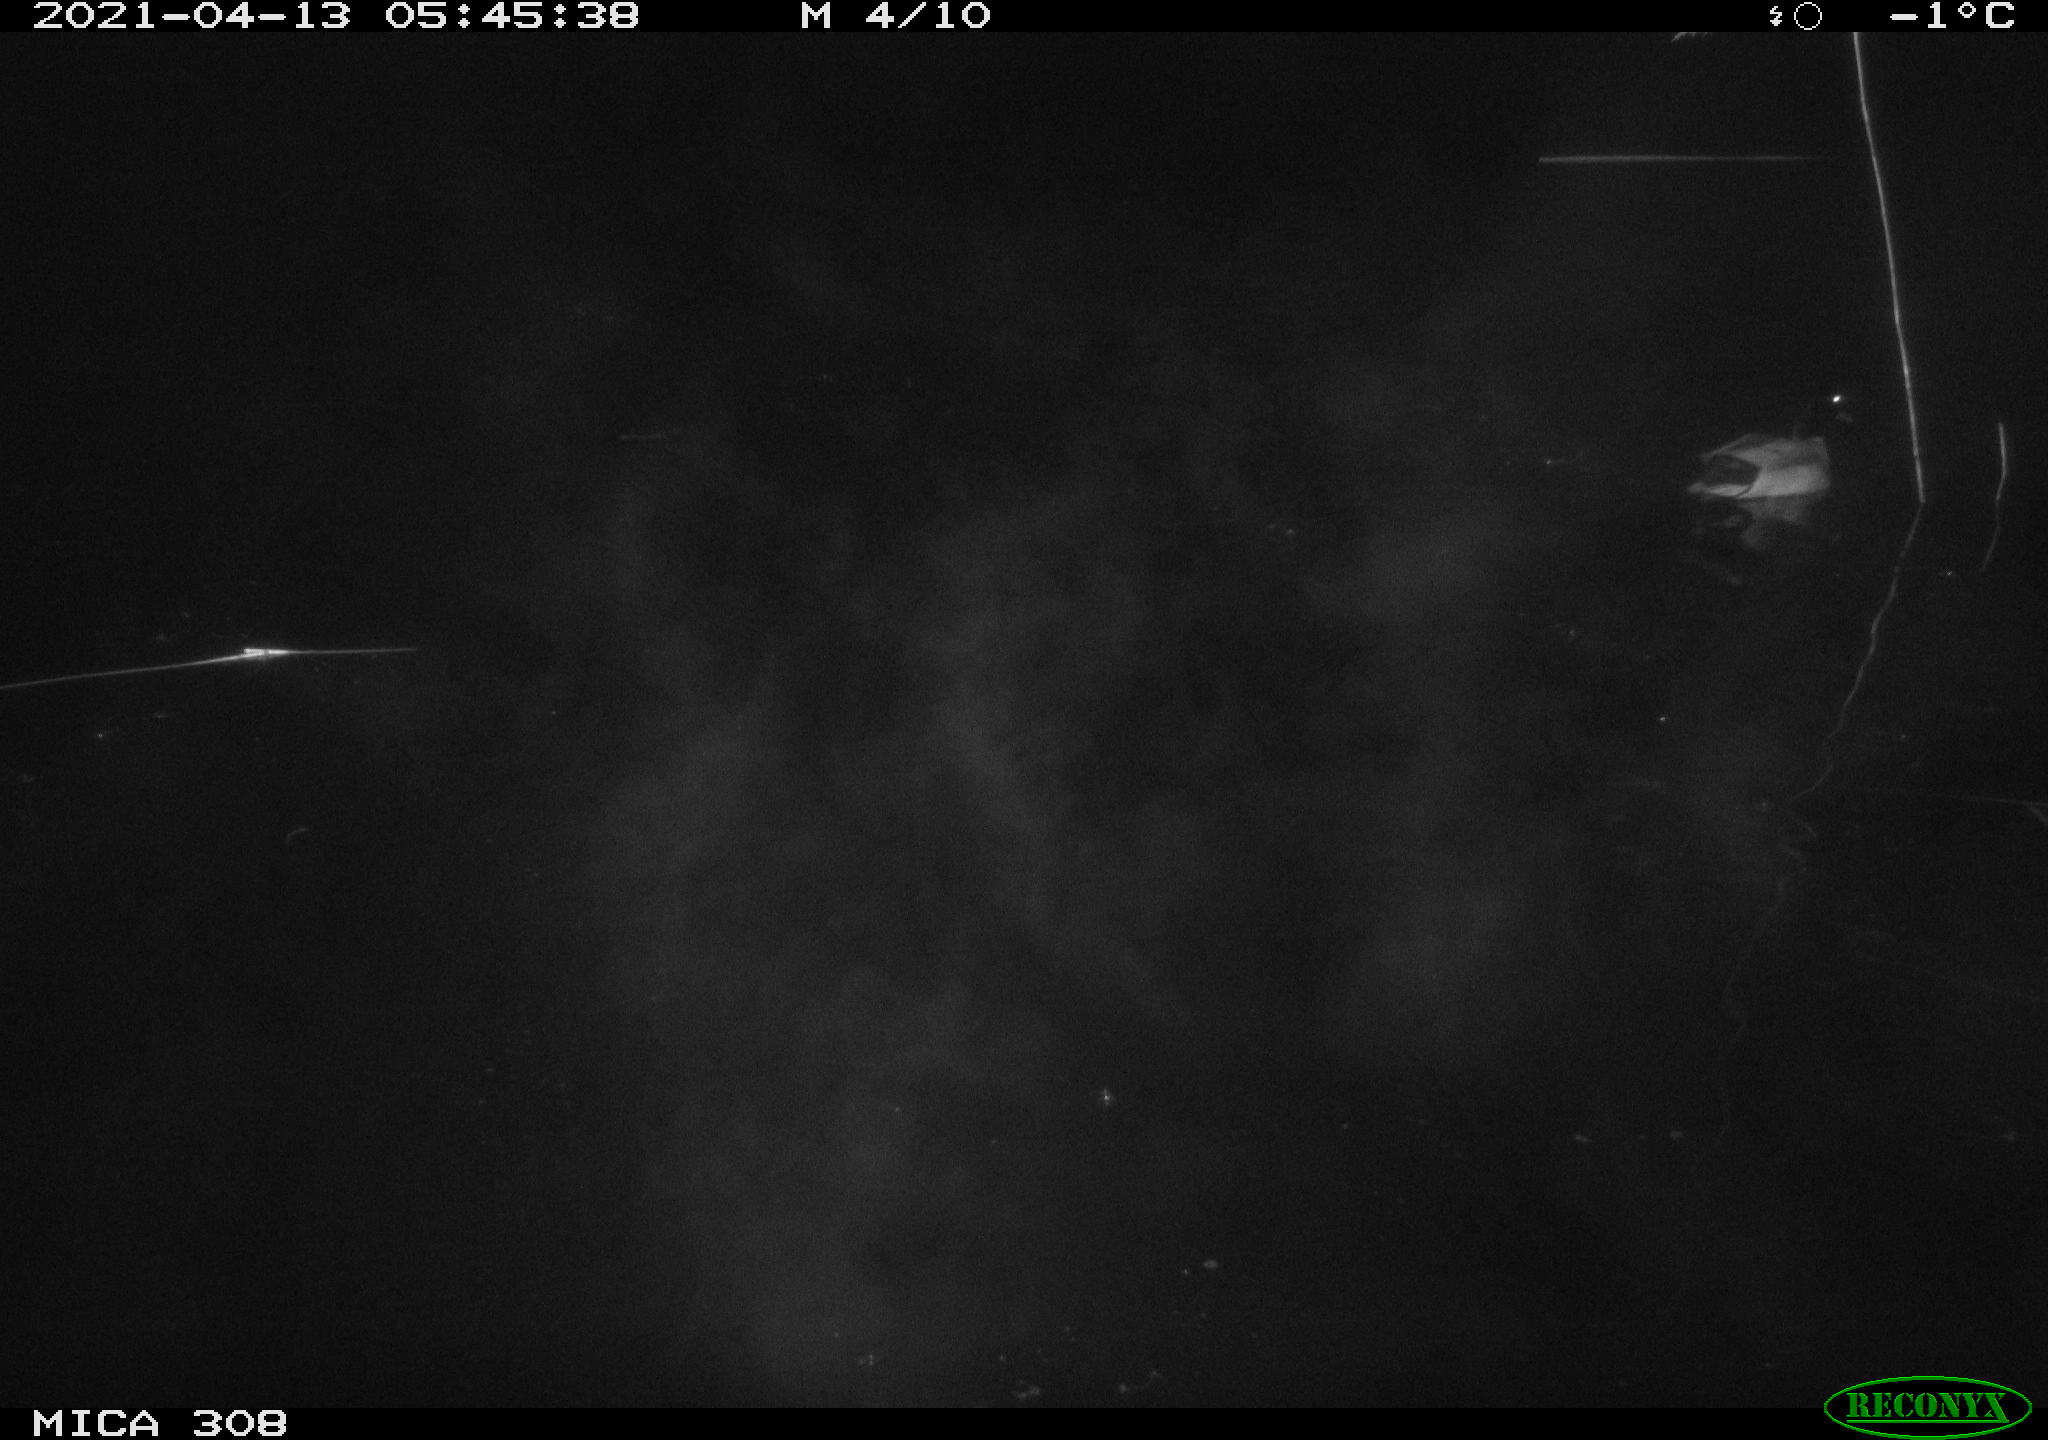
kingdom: Animalia
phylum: Chordata
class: Aves
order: Anseriformes
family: Anatidae
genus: Anas
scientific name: Anas platyrhynchos
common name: Mallard
